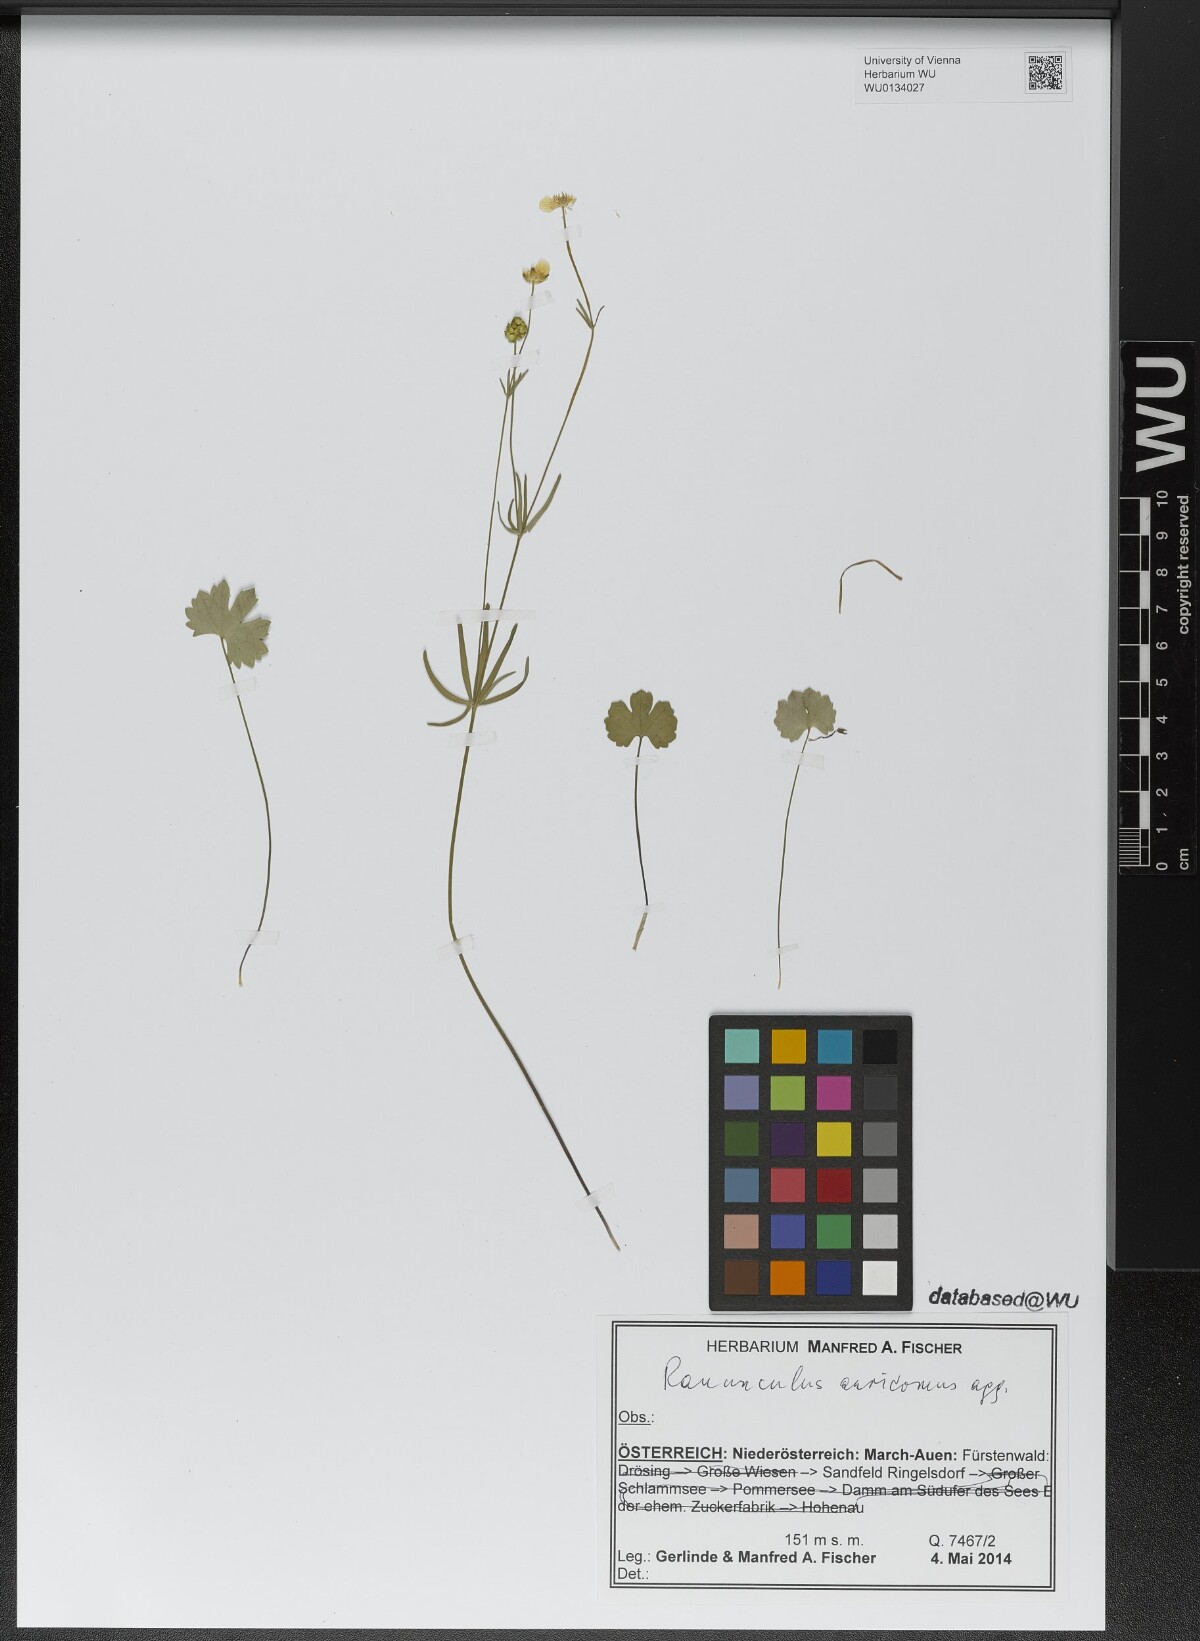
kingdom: Plantae
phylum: Tracheophyta
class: Magnoliopsida
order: Ranunculales
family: Ranunculaceae
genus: Ranunculus
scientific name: Ranunculus auricomus
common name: Goldilocks buttercup
